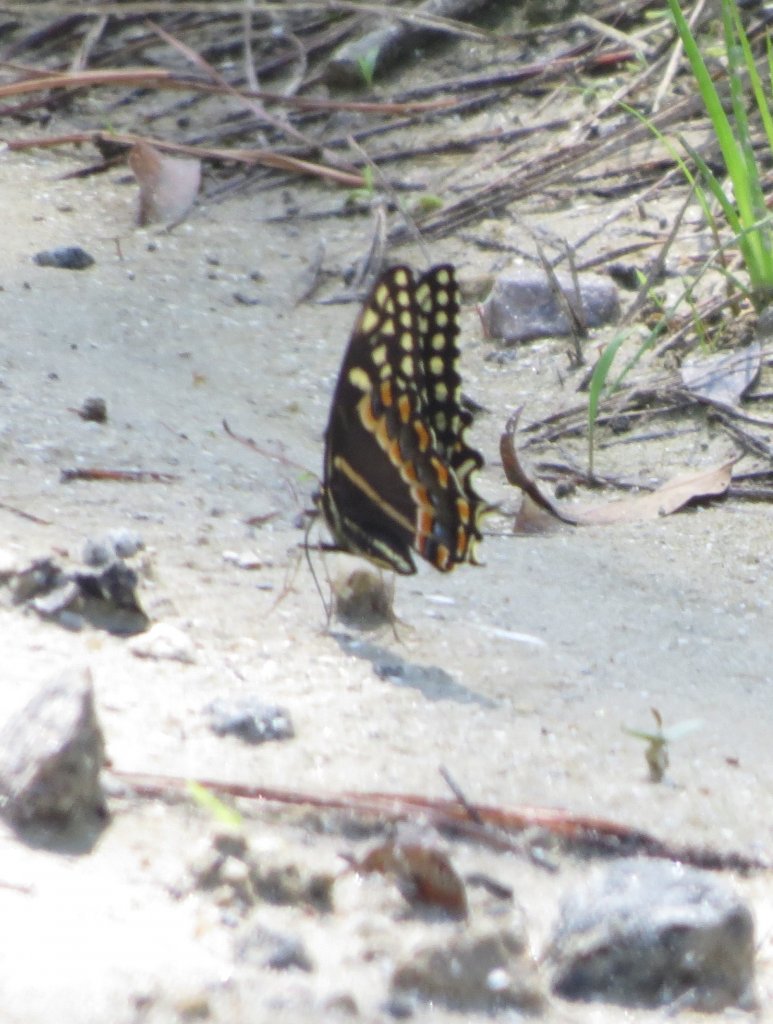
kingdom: Animalia
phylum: Arthropoda
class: Insecta
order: Lepidoptera
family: Papilionidae
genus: Pterourus
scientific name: Pterourus palamedes
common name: Palamedes Swallowtail
